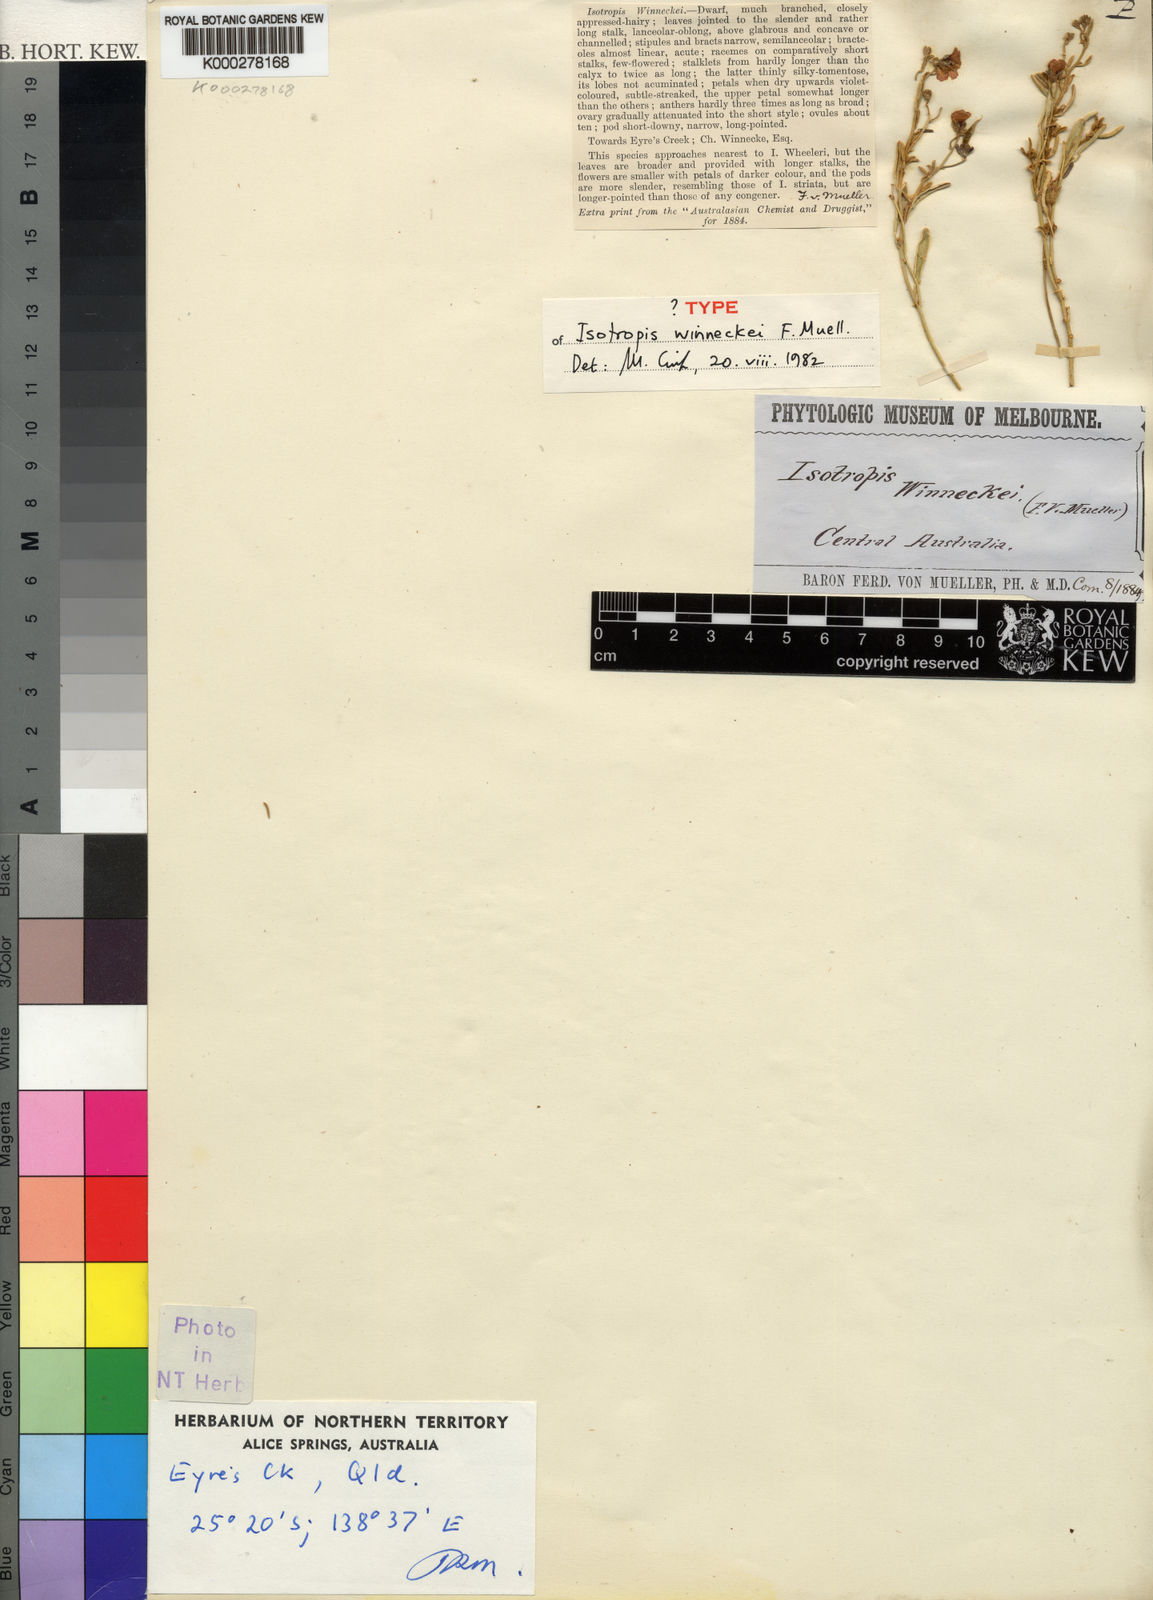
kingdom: Plantae
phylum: Tracheophyta
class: Magnoliopsida
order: Fabales
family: Fabaceae
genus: Isotropis
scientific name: Isotropis winneckei
